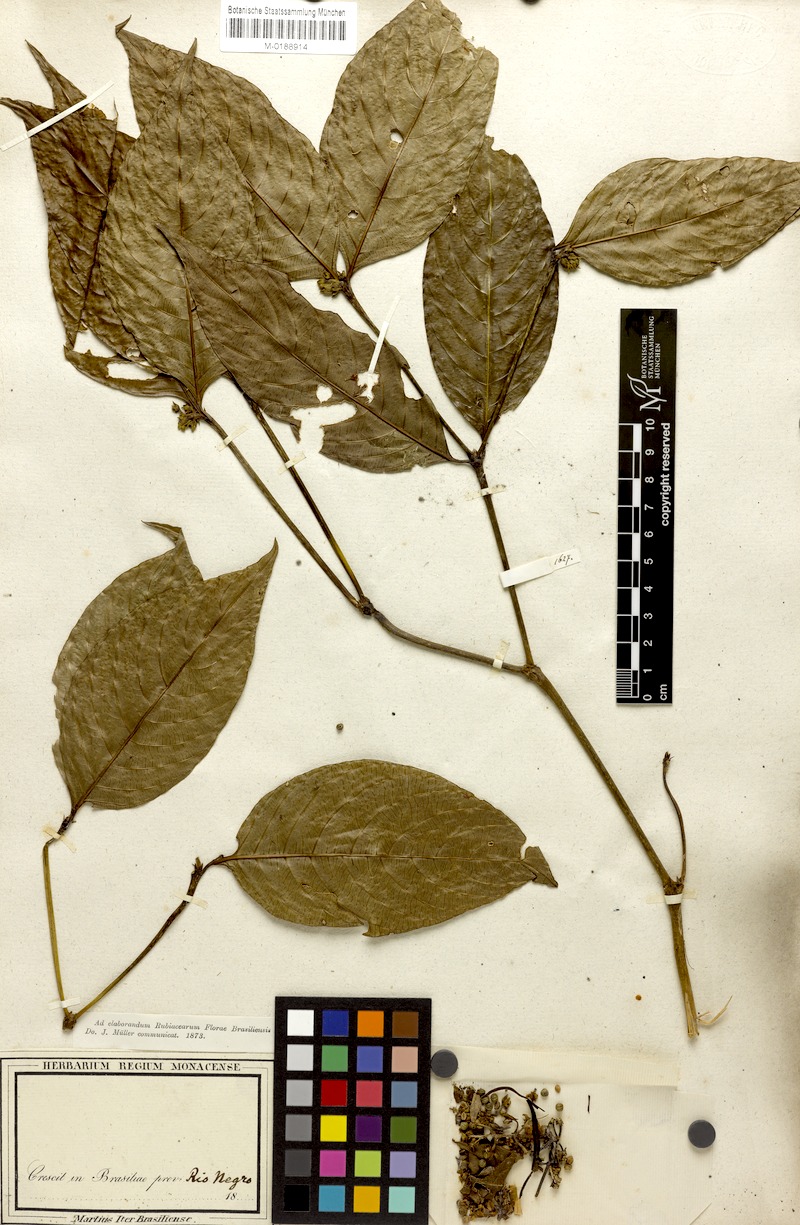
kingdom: Plantae
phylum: Tracheophyta
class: Magnoliopsida
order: Gentianales
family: Rubiaceae
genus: Palicourea
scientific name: Palicourea gracilenta
